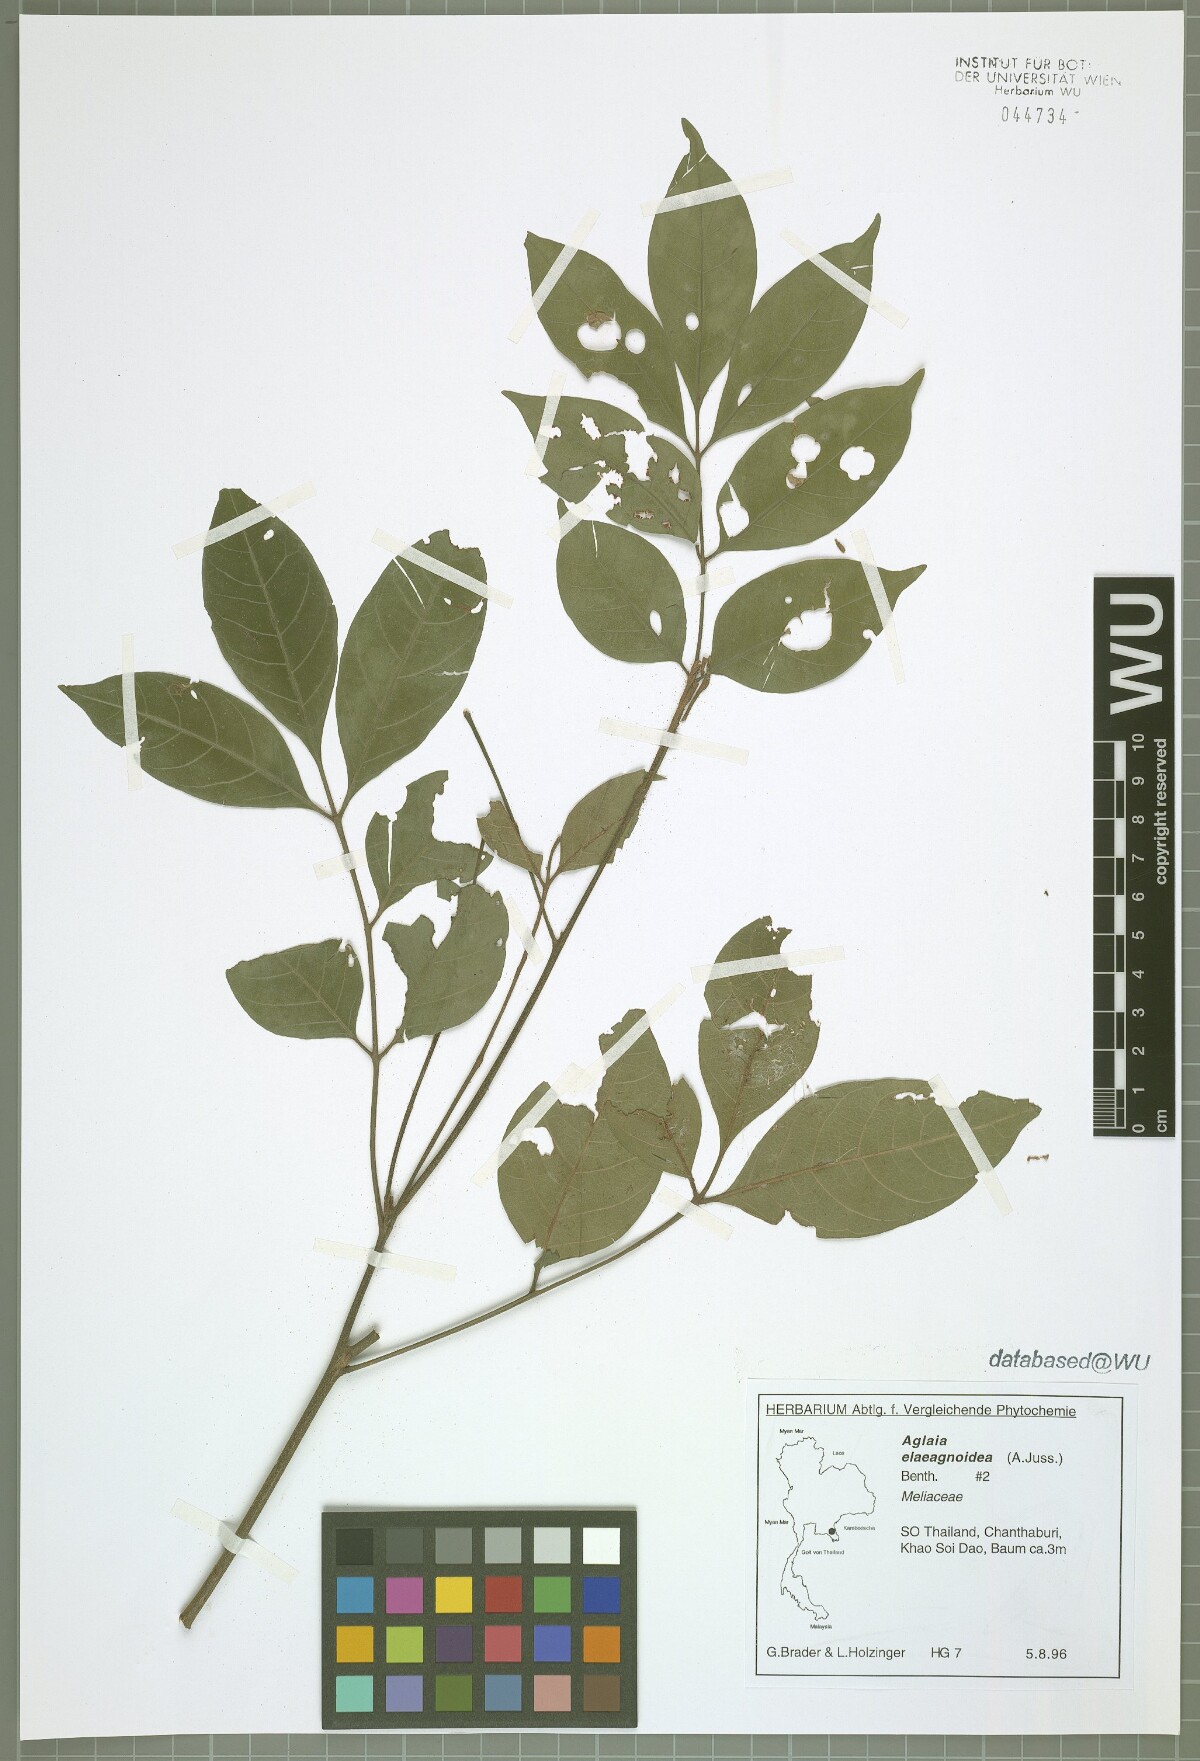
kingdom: Plantae
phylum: Tracheophyta
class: Magnoliopsida
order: Sapindales
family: Meliaceae
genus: Aglaia
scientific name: Aglaia elaeagnoidea
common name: Droopyleaf
